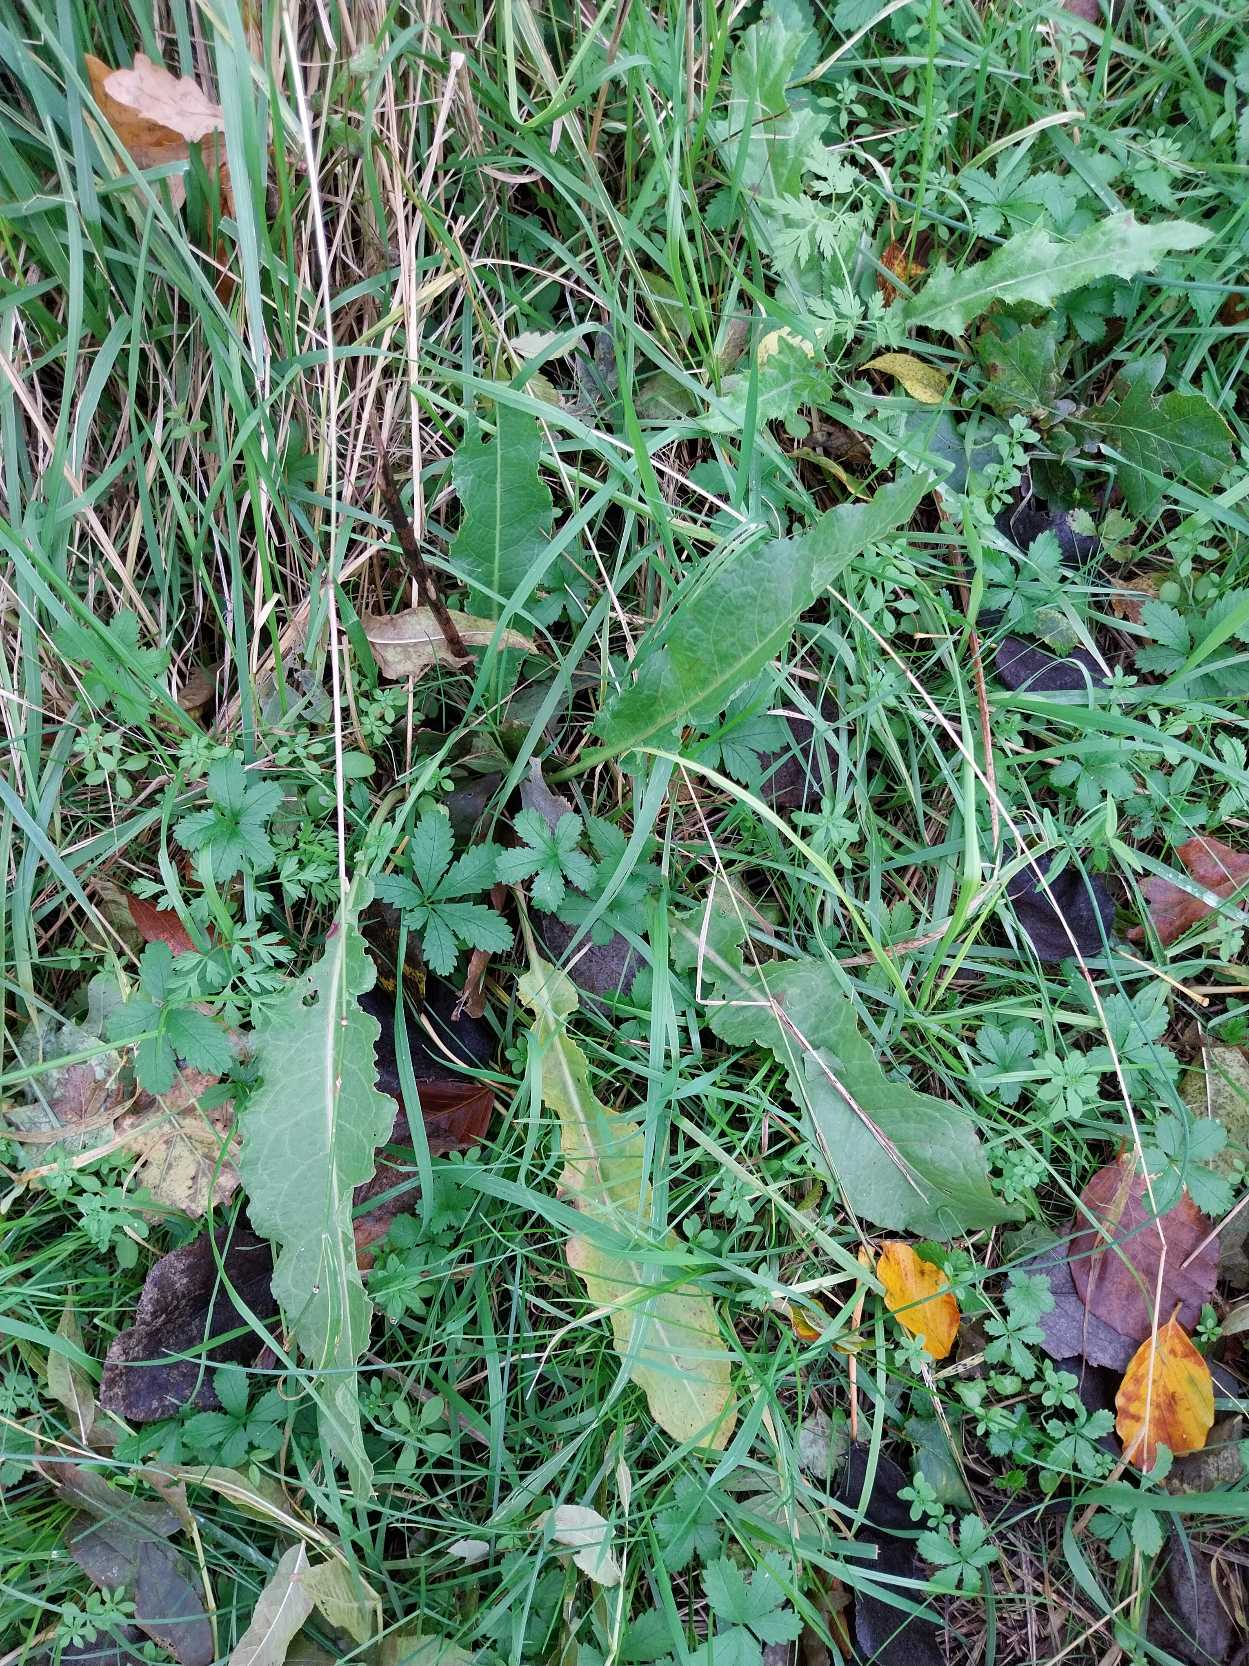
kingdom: Plantae
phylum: Tracheophyta
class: Magnoliopsida
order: Caryophyllales
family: Polygonaceae
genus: Rumex
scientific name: Rumex crispus
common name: Kruset skræppe
